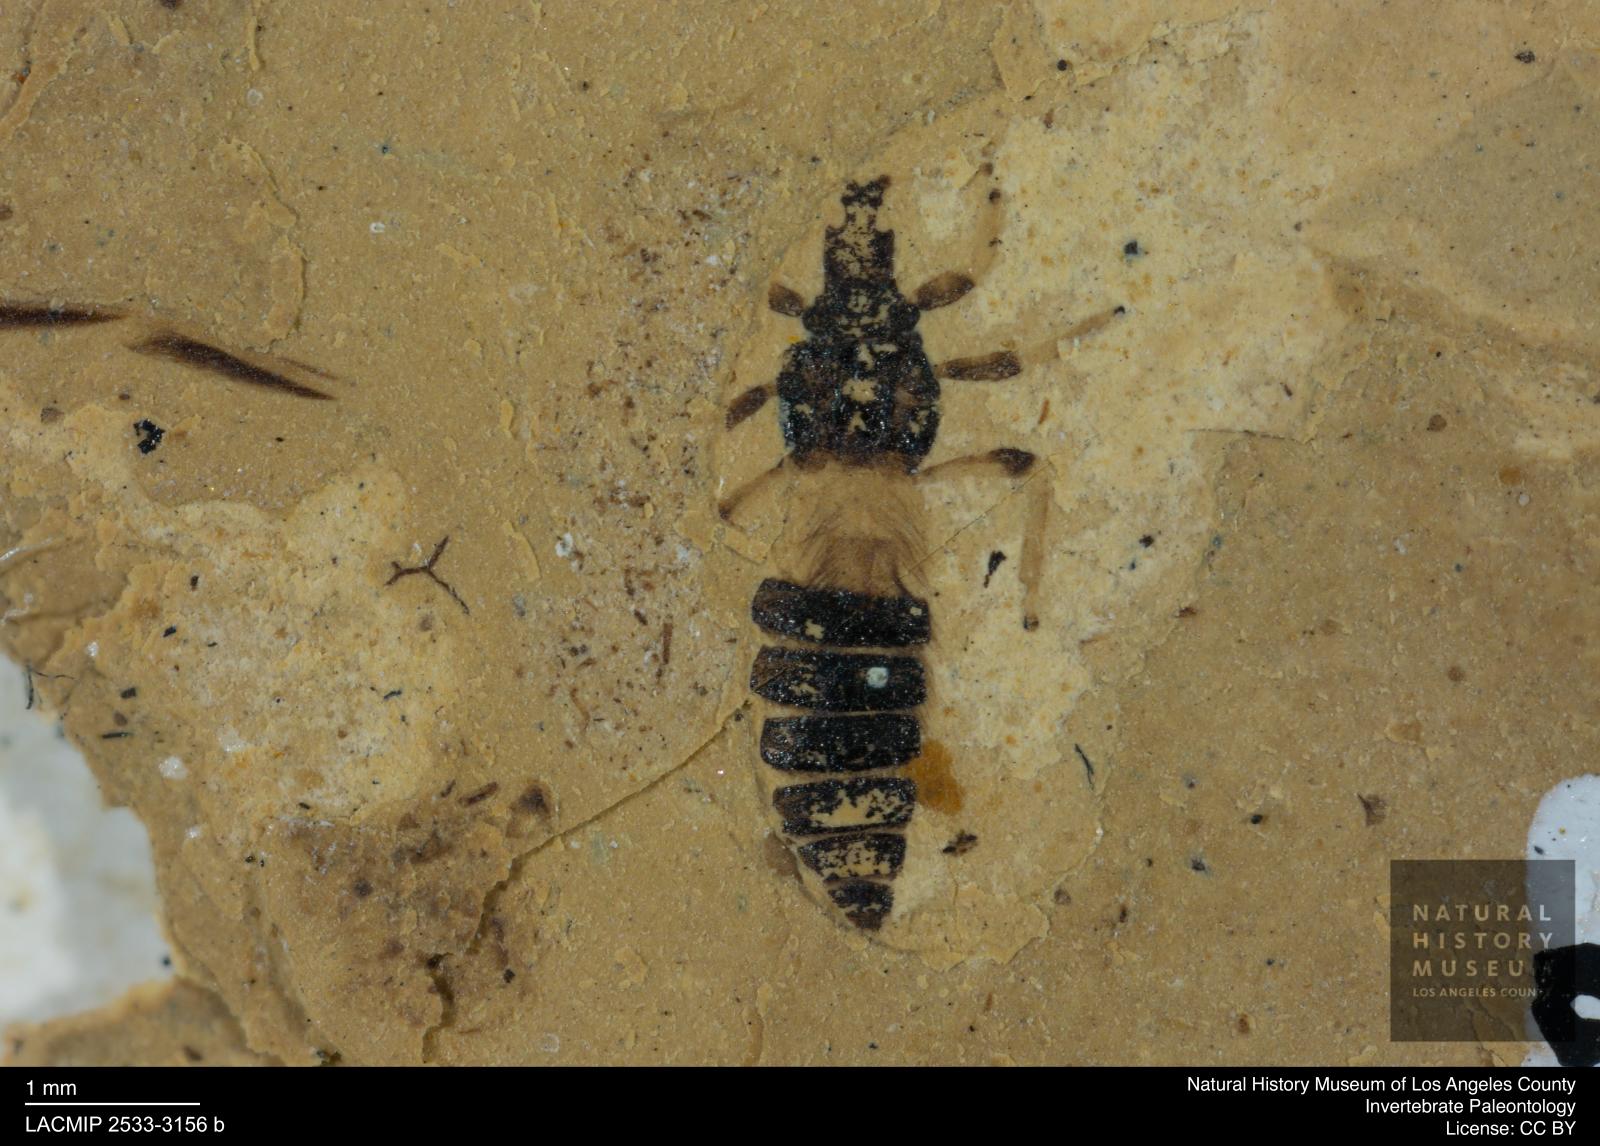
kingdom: Animalia
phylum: Arthropoda
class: Insecta
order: Thysanoptera
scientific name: Thysanoptera
